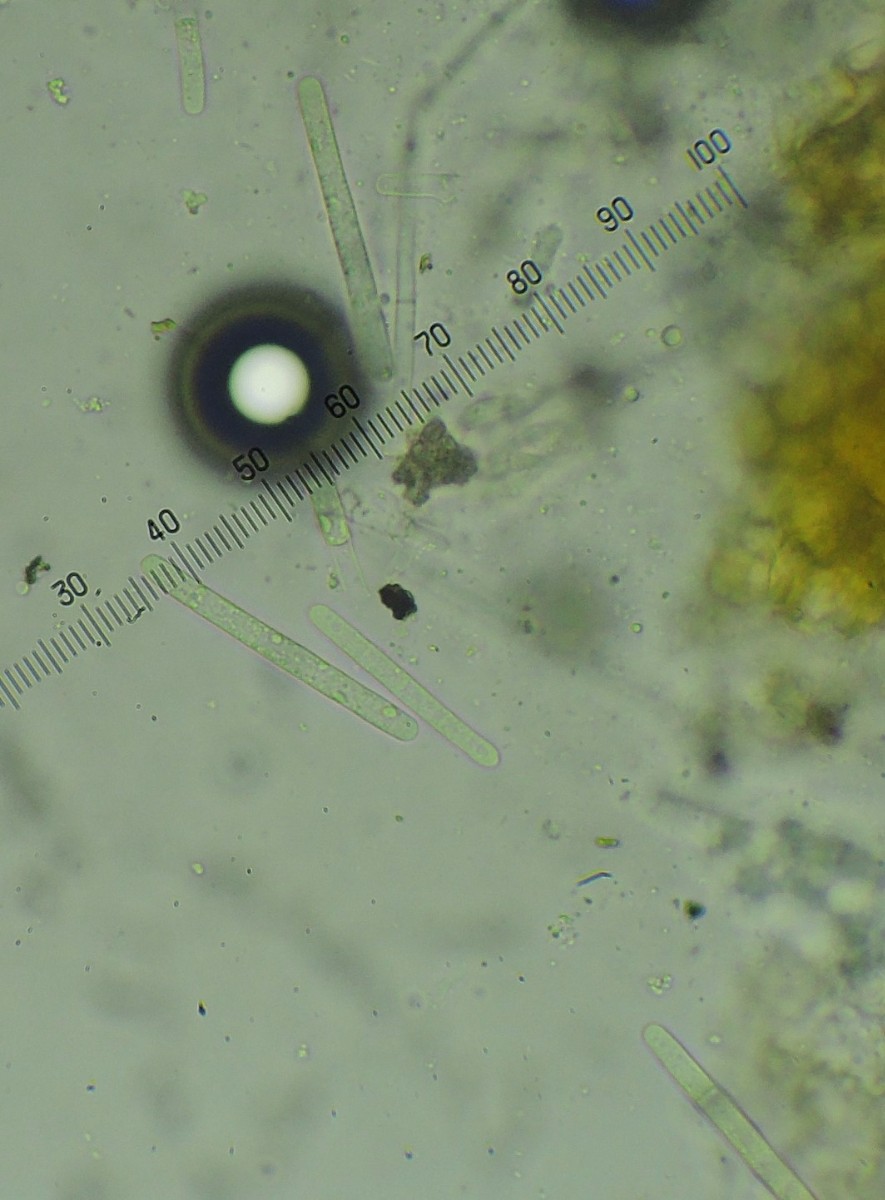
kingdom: Fungi
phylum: Ascomycota
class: Sordariomycetes
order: Hypocreales
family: Nectriaceae
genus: Calonectria
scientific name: Calonectria pyrochroa
